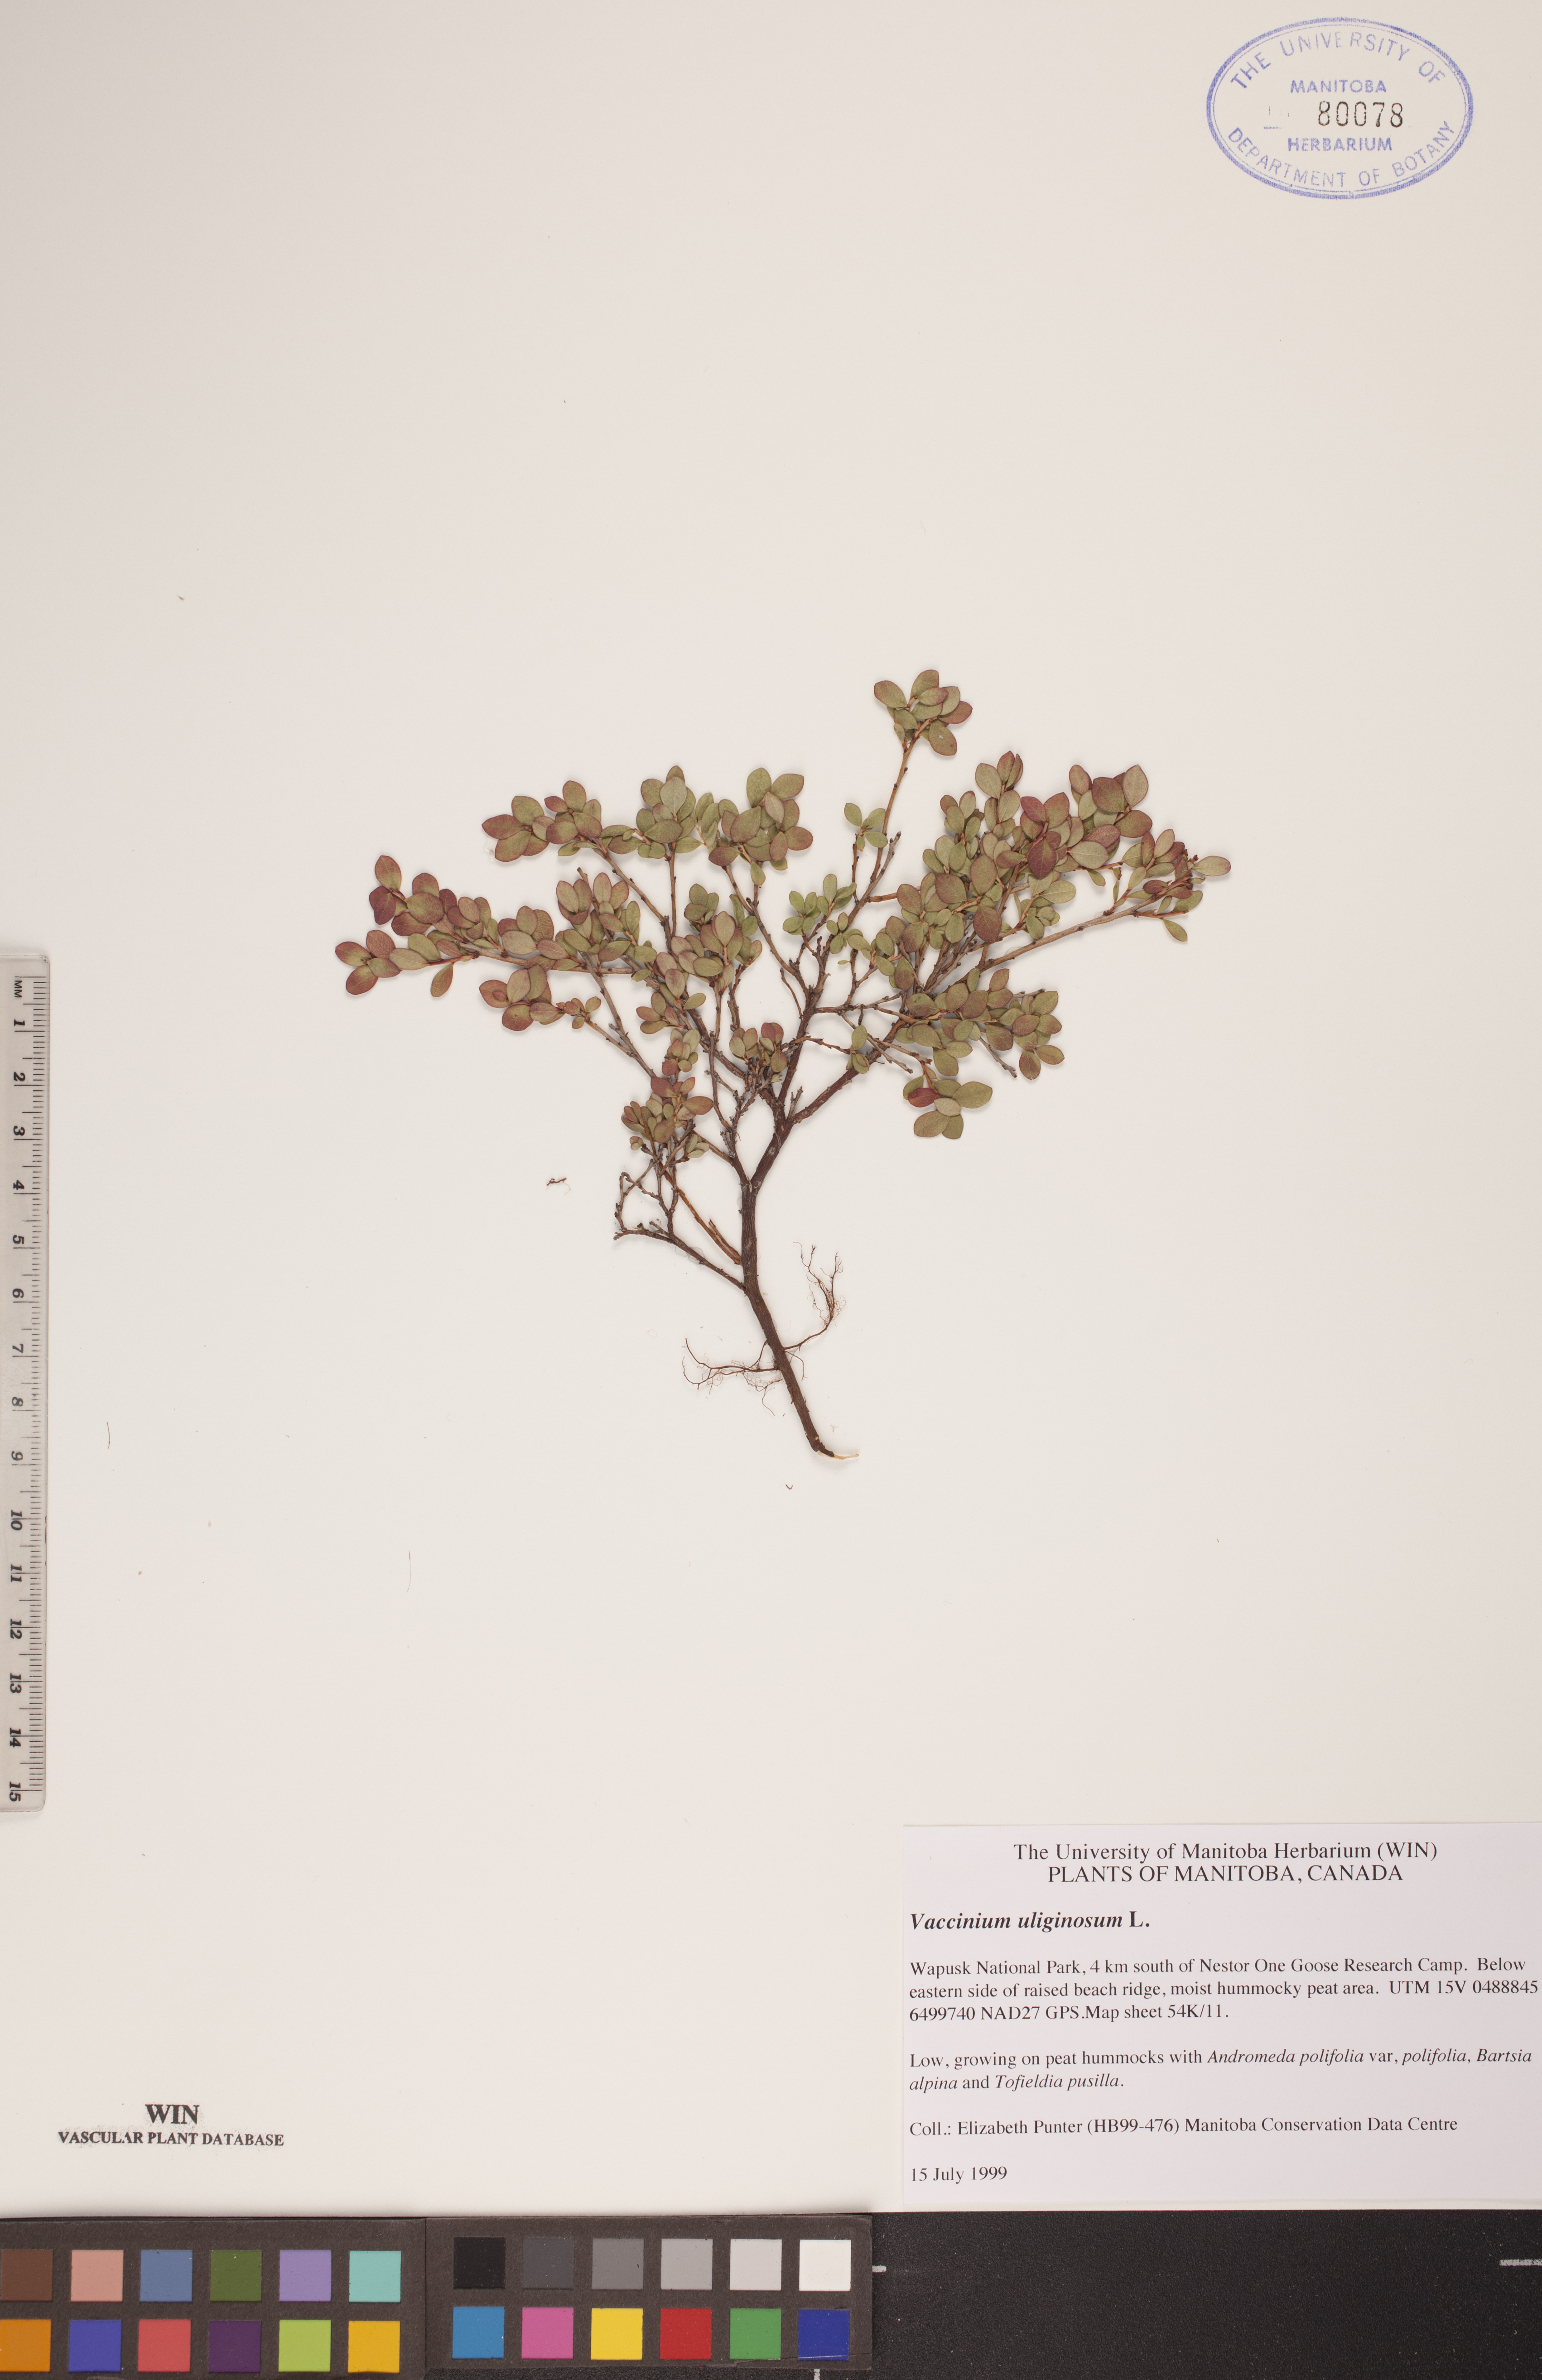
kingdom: Plantae
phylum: Tracheophyta
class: Magnoliopsida
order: Ericales
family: Ericaceae
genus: Vaccinium
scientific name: Vaccinium uliginosum
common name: Bog bilberry
